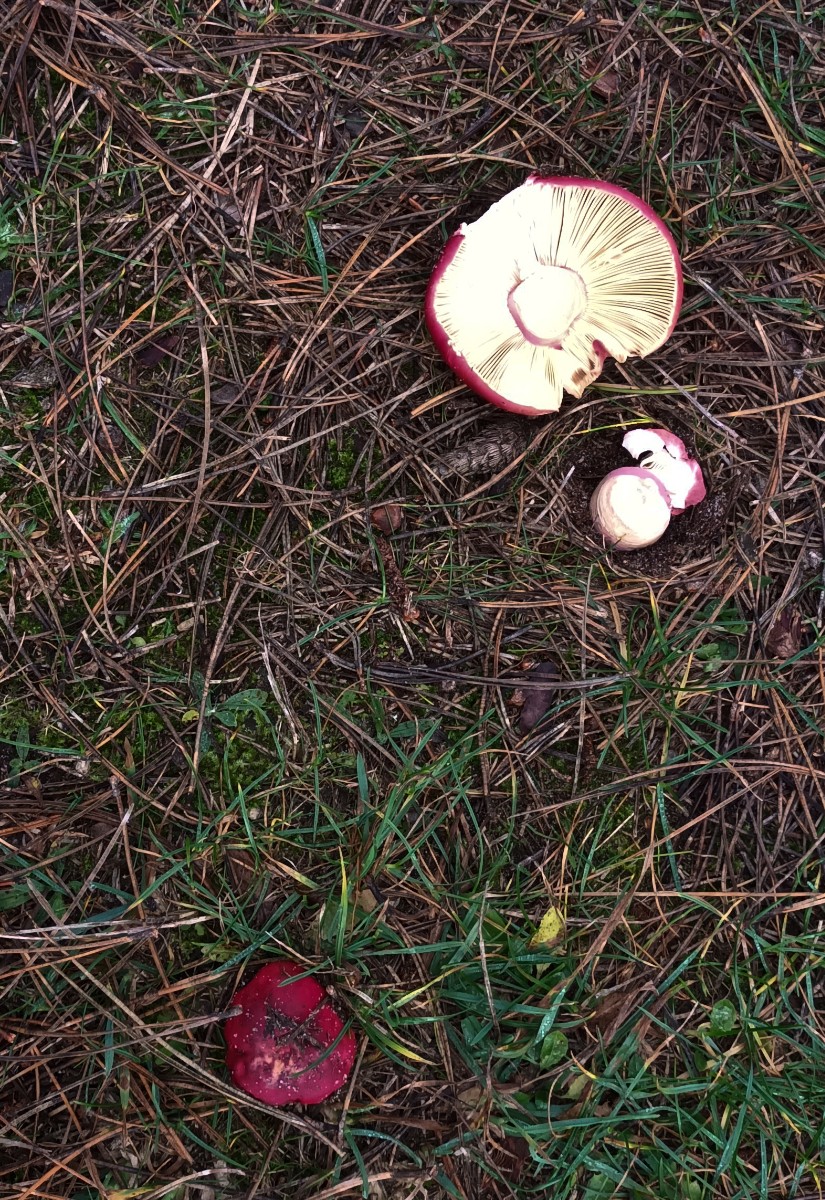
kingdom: Fungi
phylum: Basidiomycota
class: Agaricomycetes
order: Russulales
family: Russulaceae
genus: Russula
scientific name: Russula xerampelina
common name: hummer-skørhat
